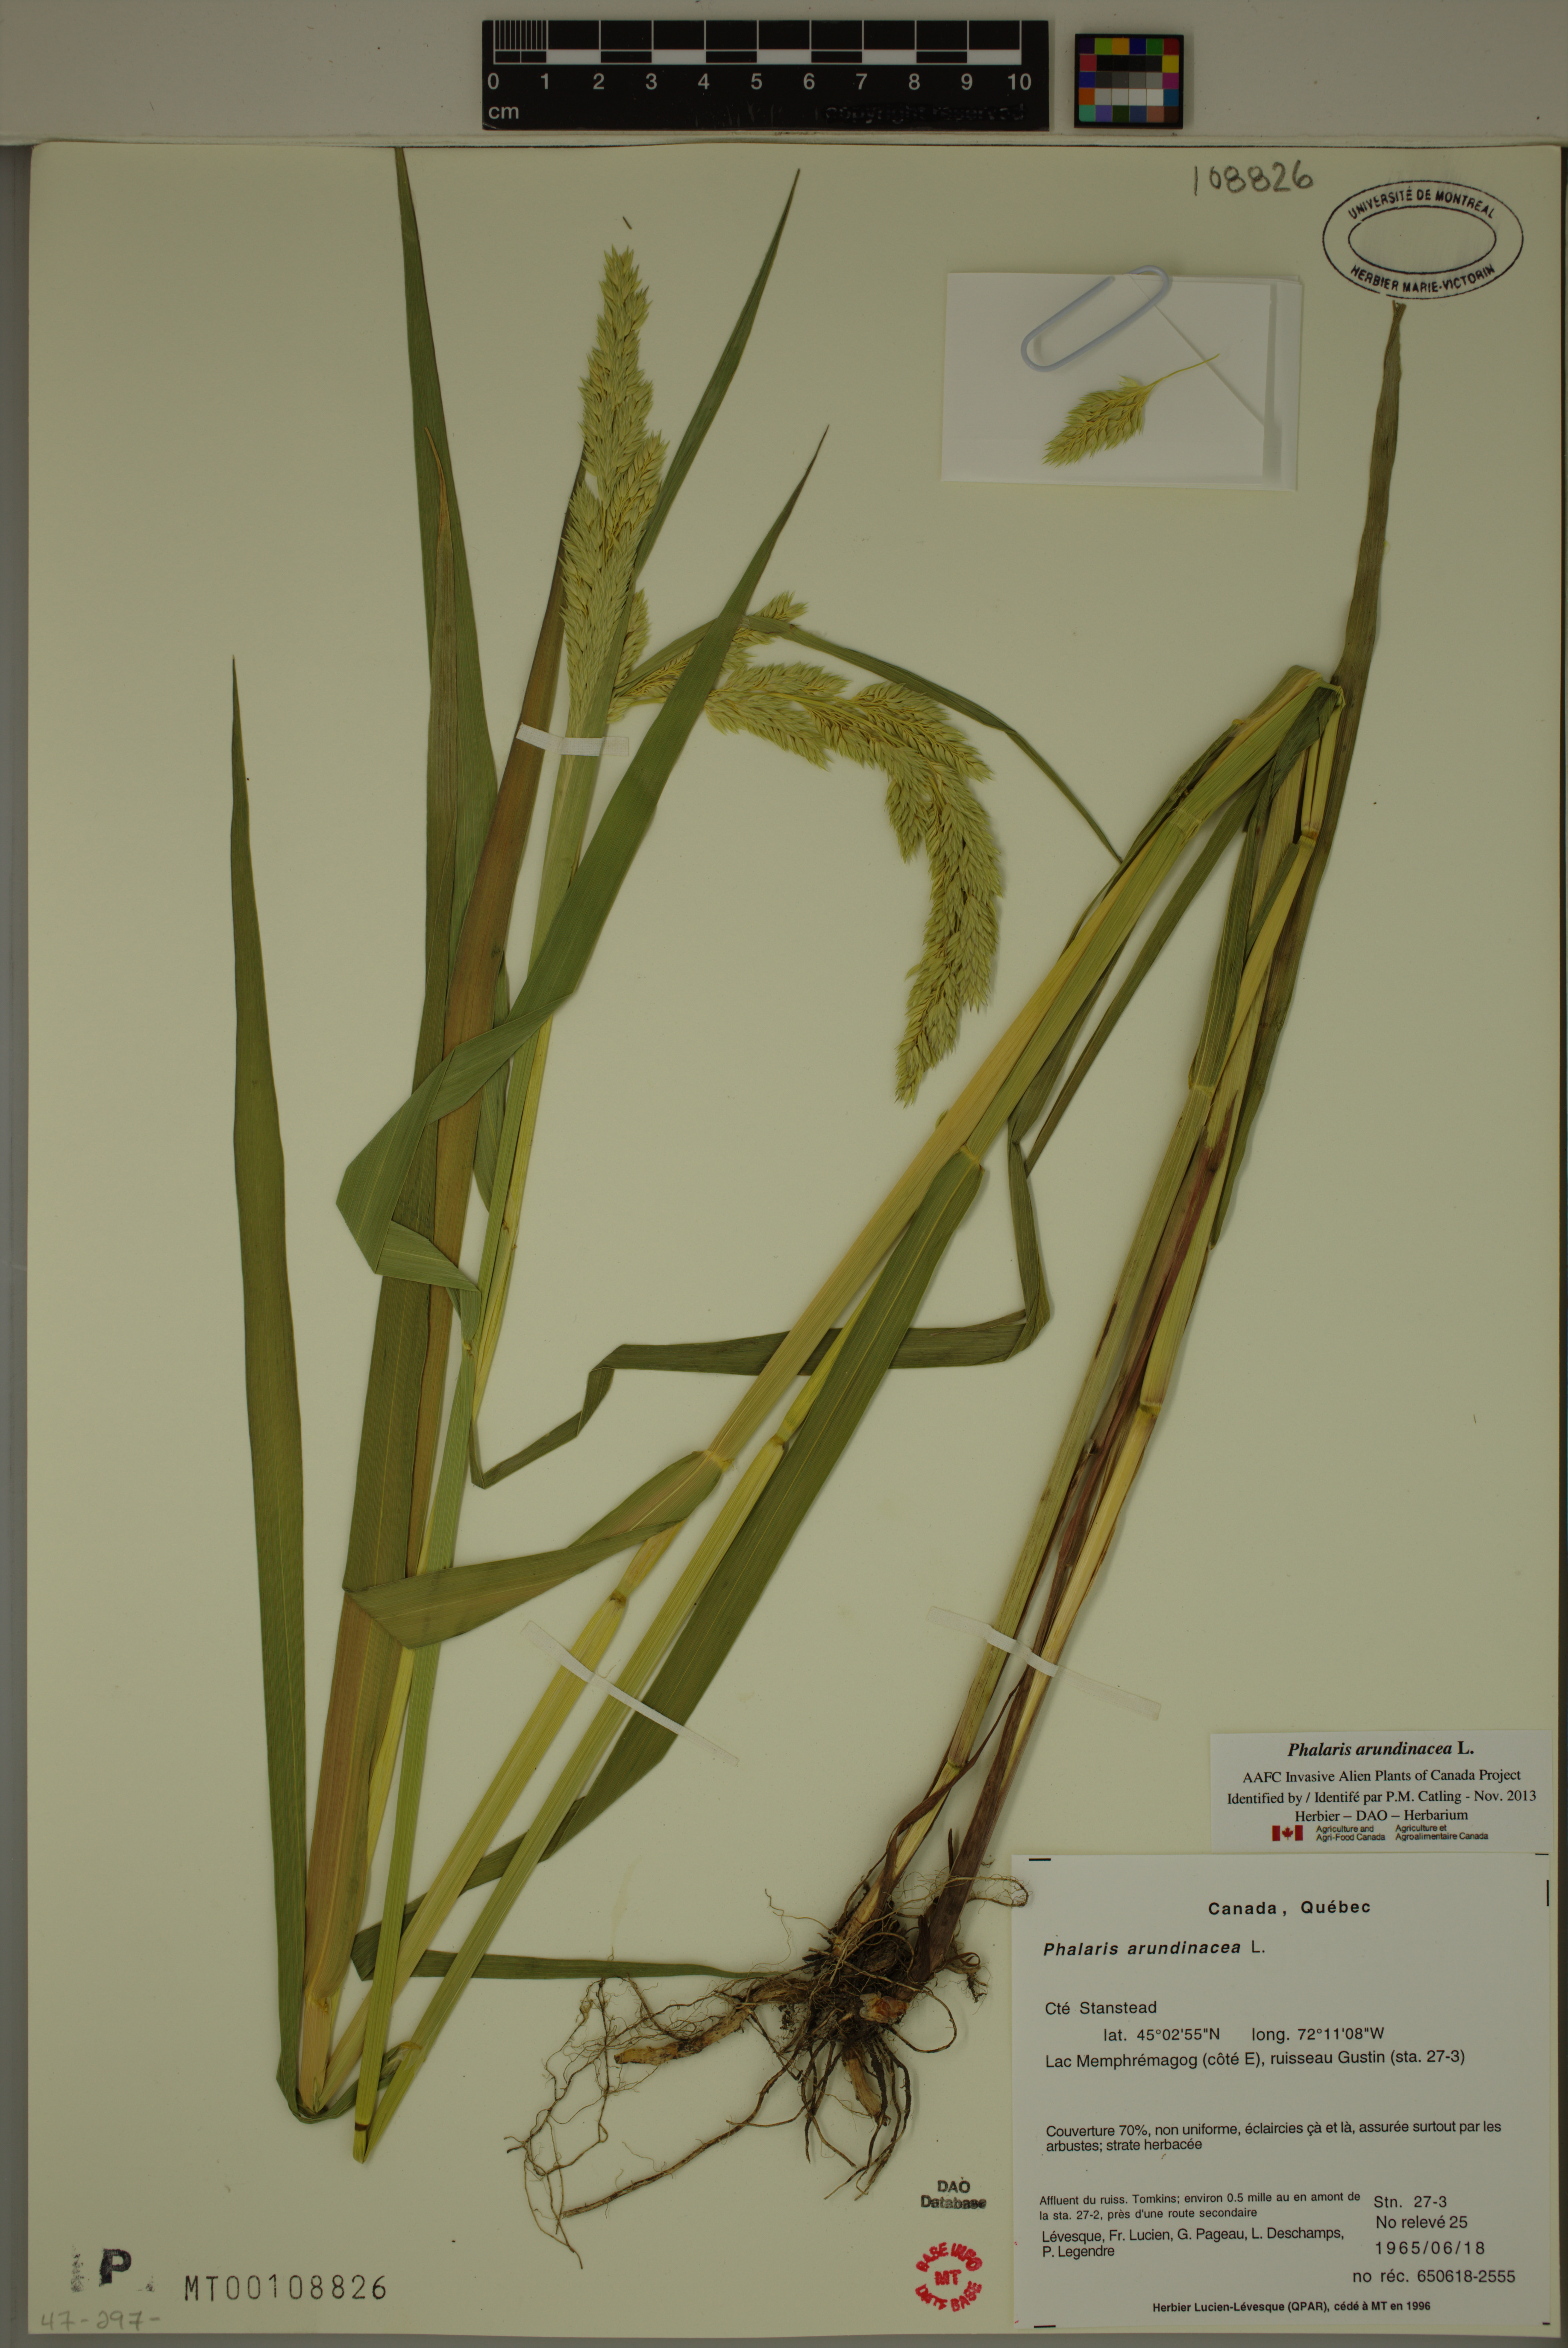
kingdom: Plantae
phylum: Tracheophyta
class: Liliopsida
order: Poales
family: Poaceae
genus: Phalaris
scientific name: Phalaris arundinacea
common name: Reed canary-grass
